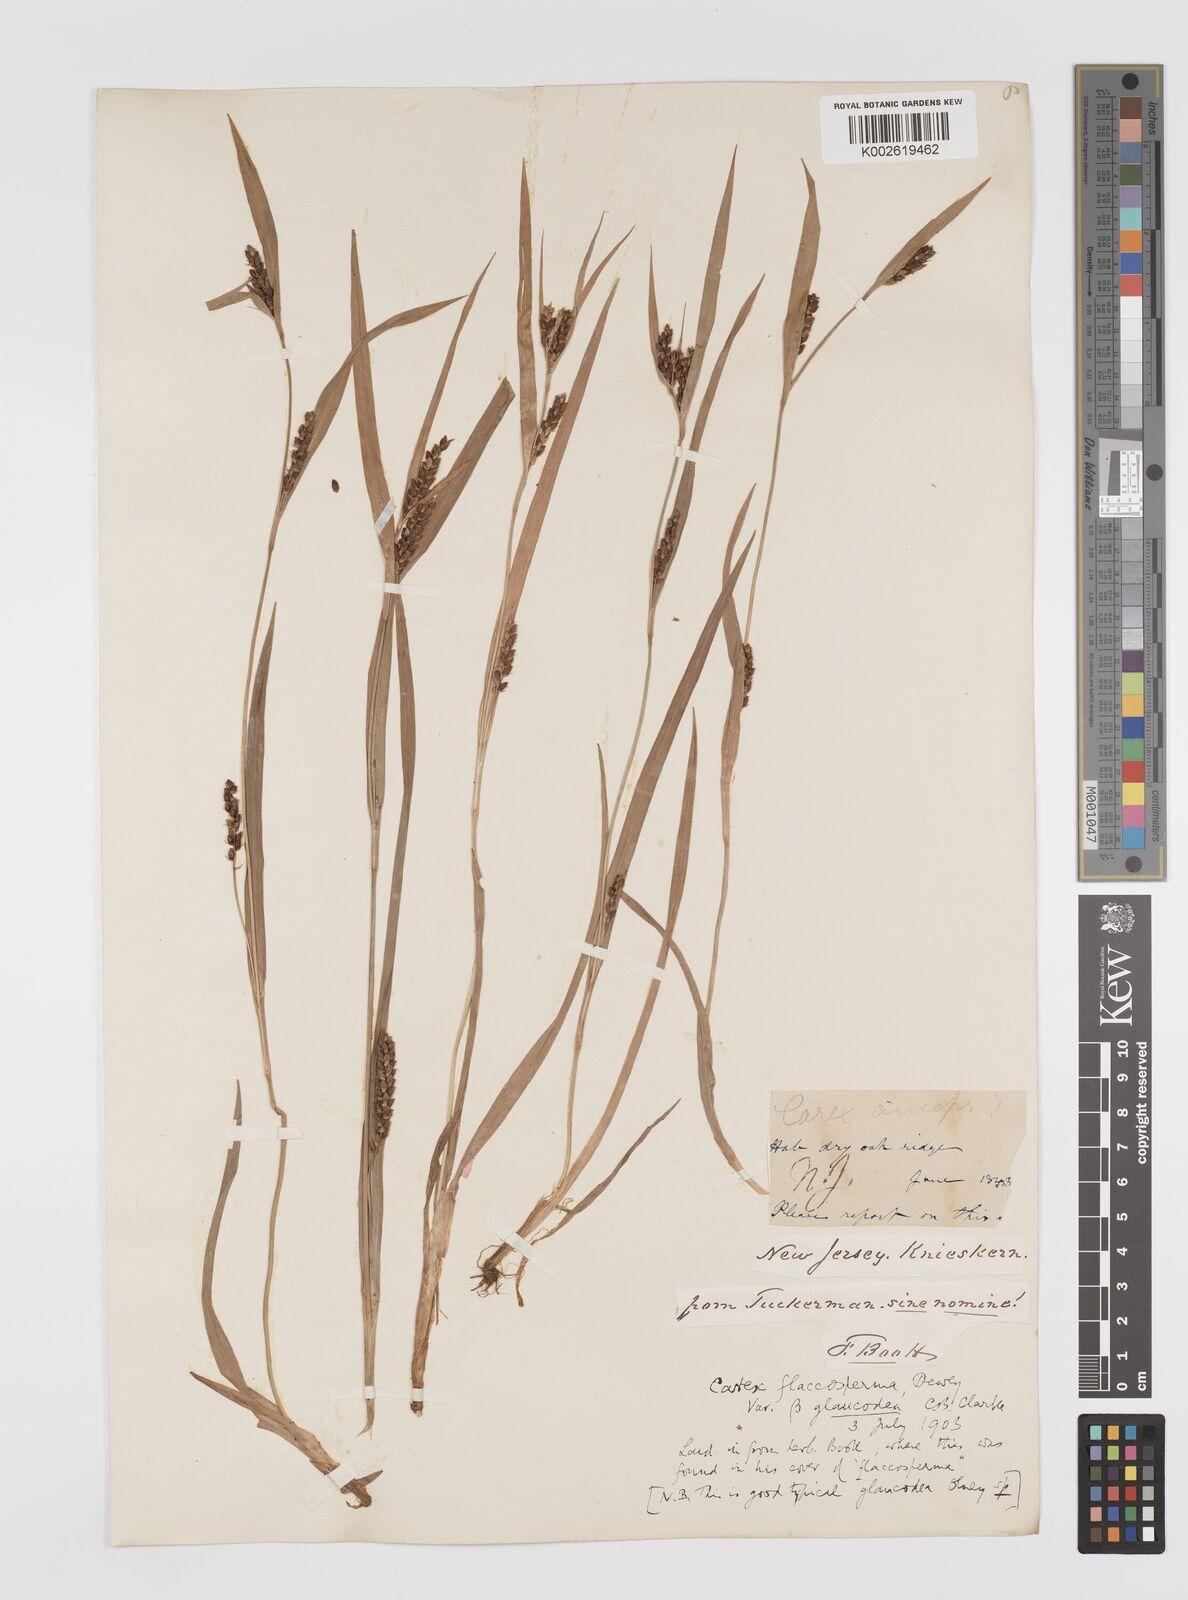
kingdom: Plantae
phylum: Tracheophyta
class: Liliopsida
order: Poales
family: Cyperaceae
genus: Carex
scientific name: Carex flaccosperma
